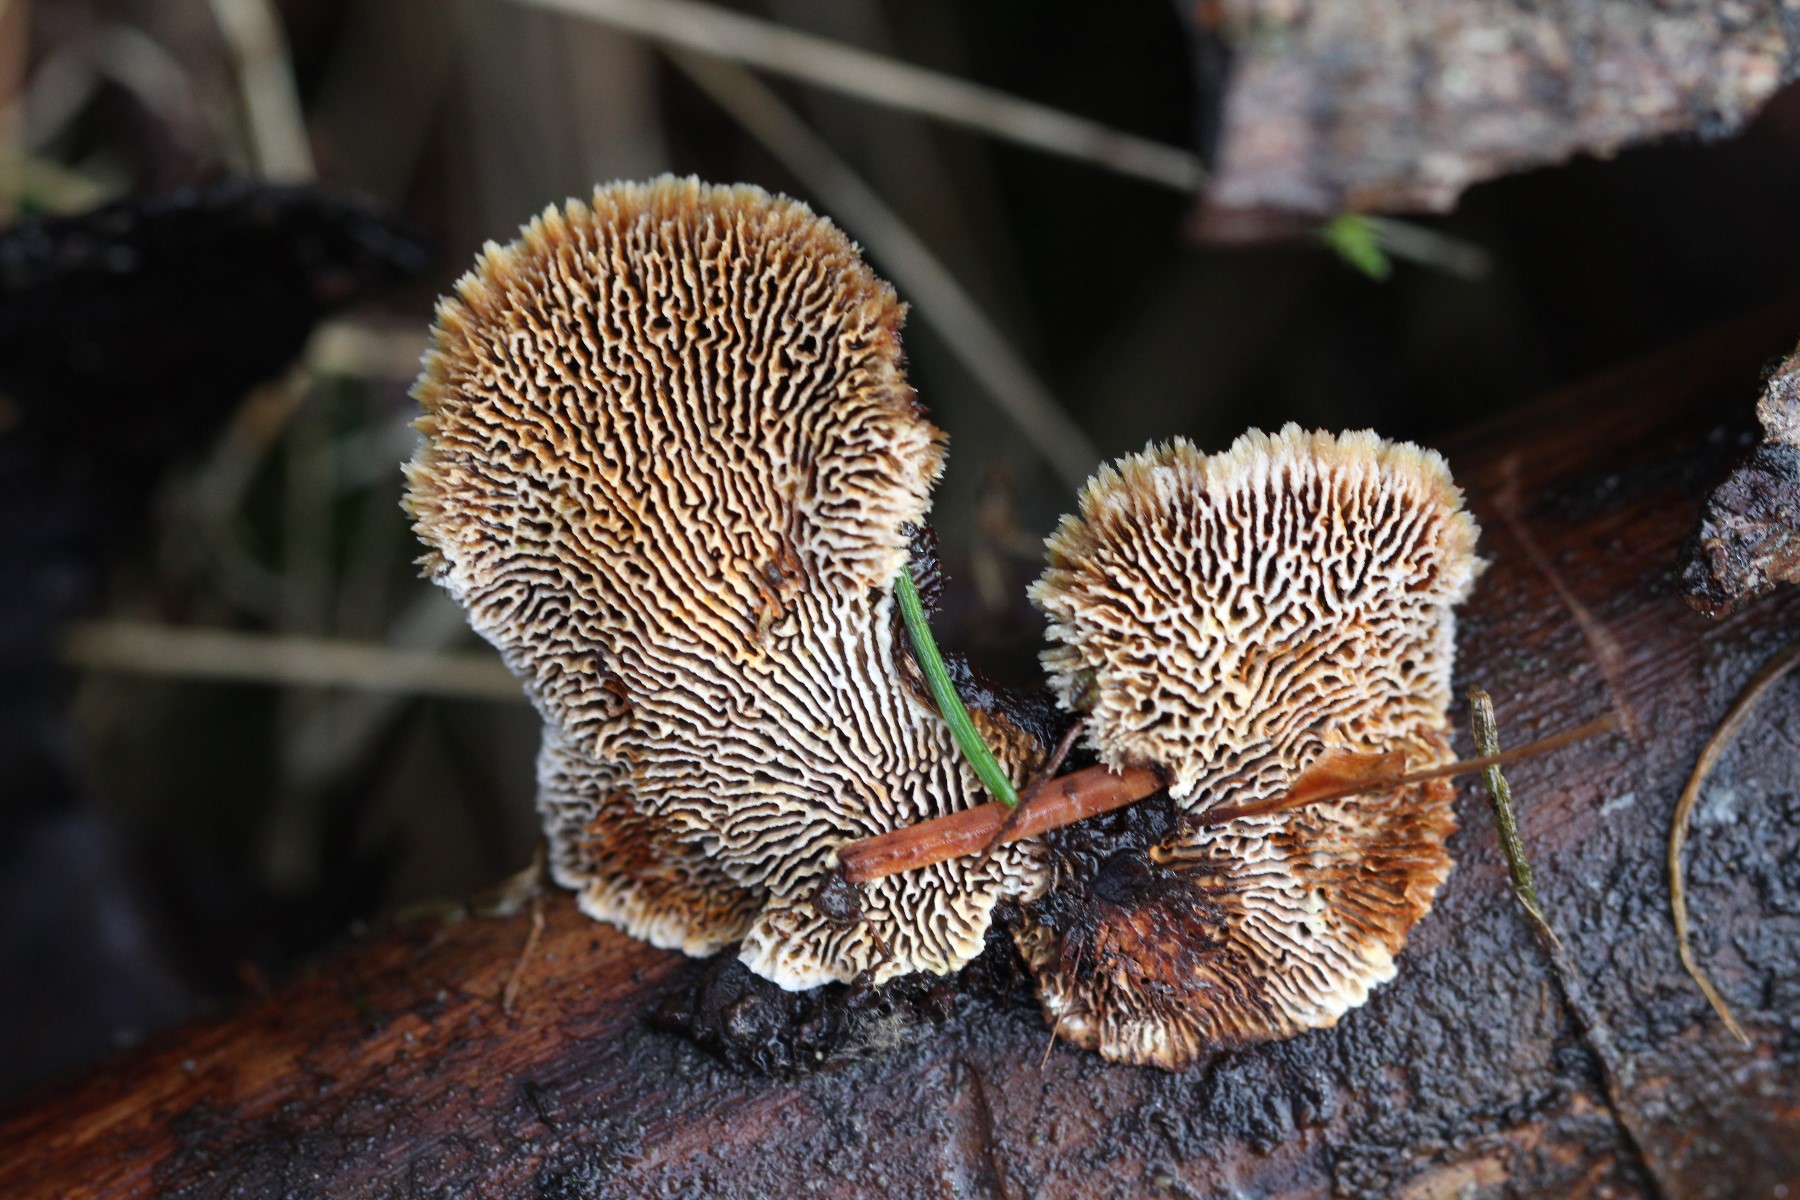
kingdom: Fungi
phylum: Basidiomycota
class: Agaricomycetes
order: Gloeophyllales
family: Gloeophyllaceae
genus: Gloeophyllum
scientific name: Gloeophyllum sepiarium
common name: fyrre-korkhat
